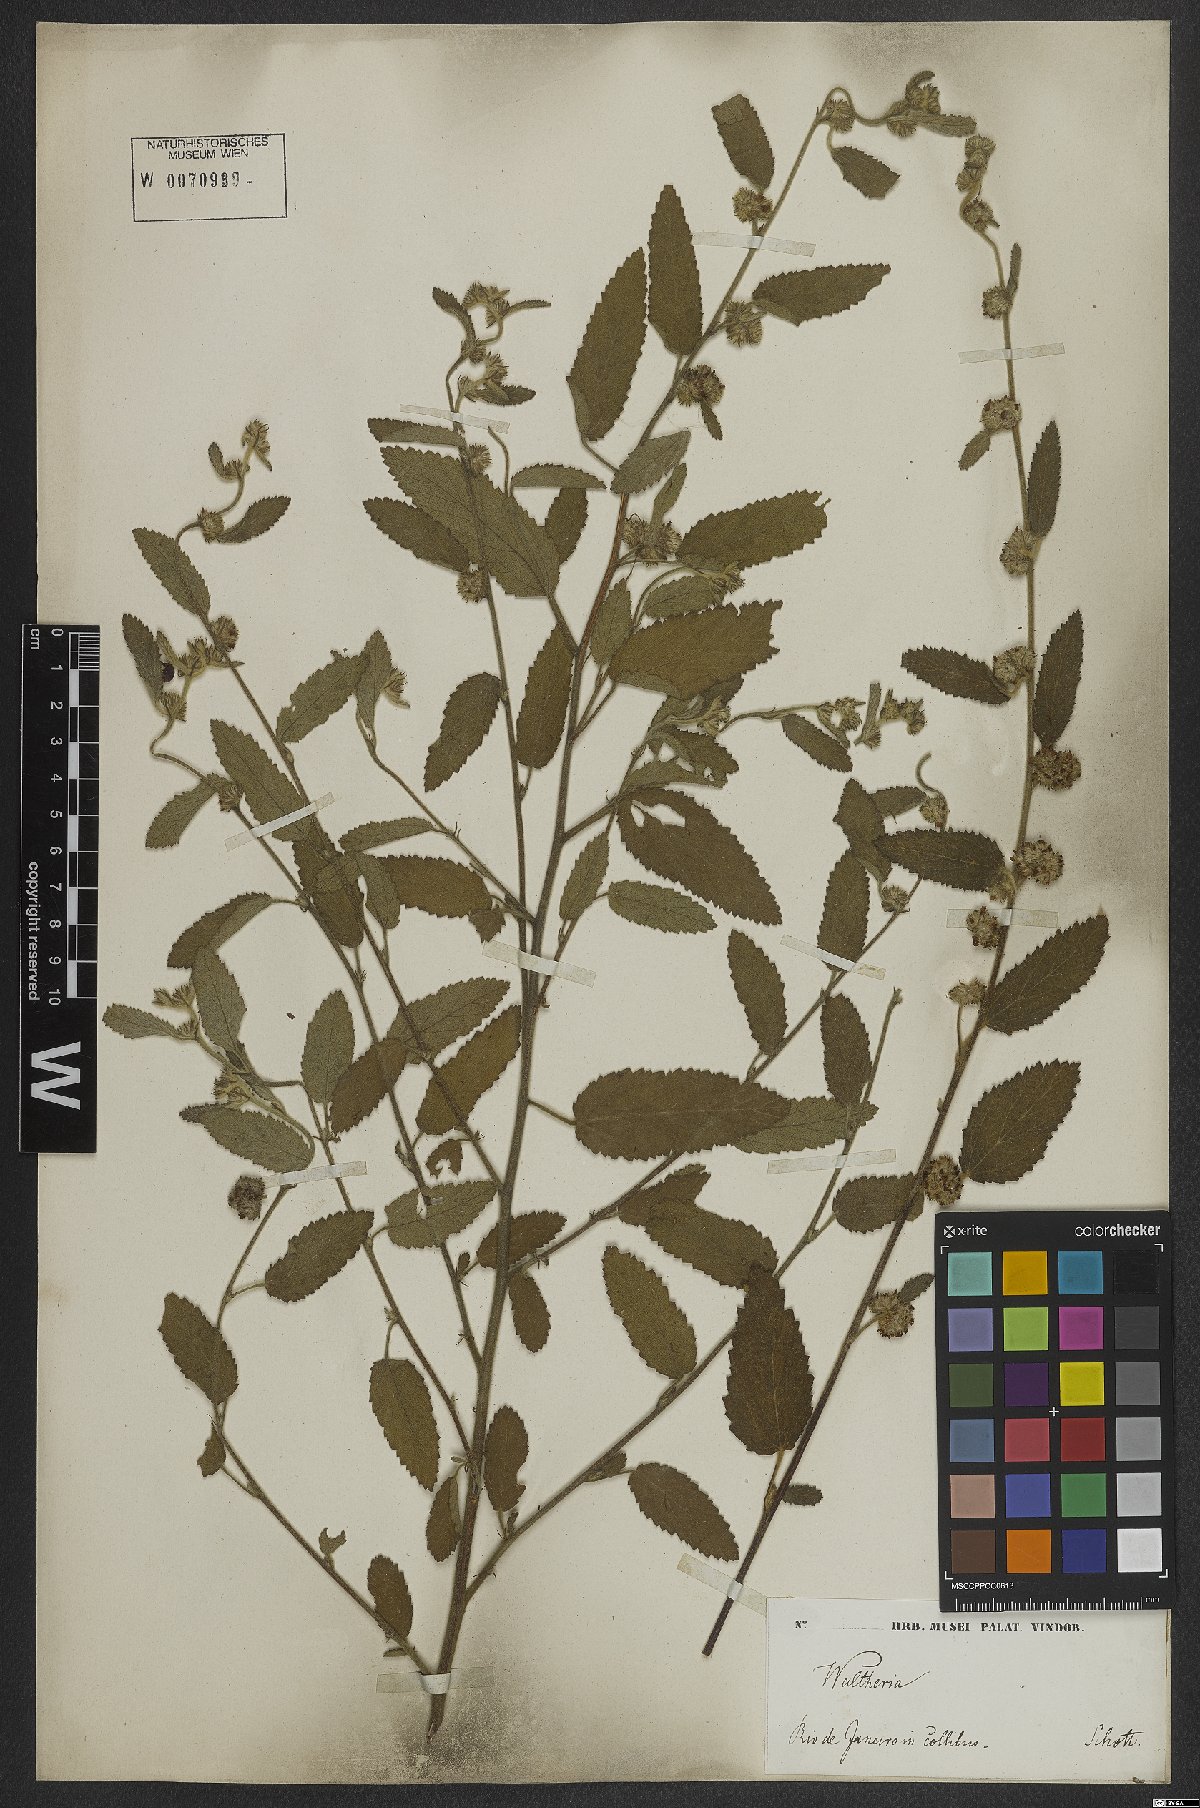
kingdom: Plantae
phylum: Tracheophyta
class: Magnoliopsida
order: Malvales
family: Malvaceae
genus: Waltheria
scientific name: Waltheria indica
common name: Leather-coat
